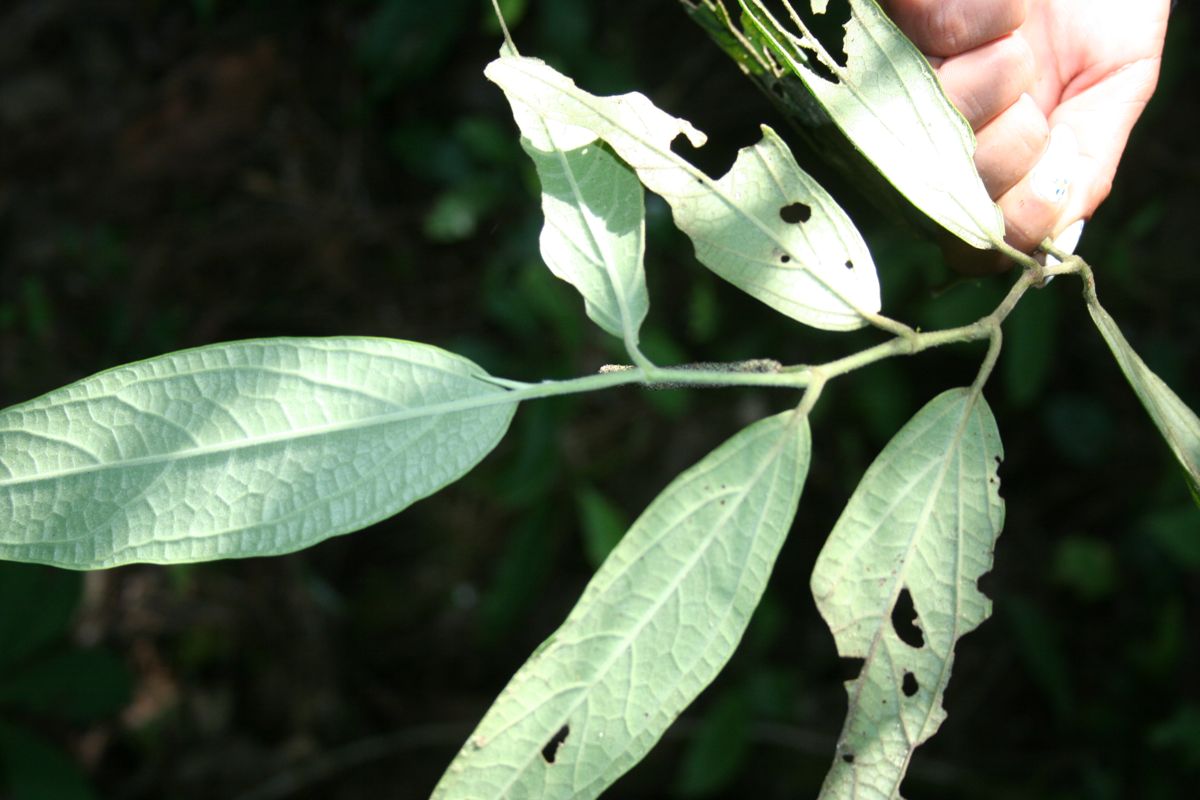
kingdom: Plantae
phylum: Tracheophyta
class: Magnoliopsida
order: Piperales
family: Piperaceae
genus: Piper
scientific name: Piper
